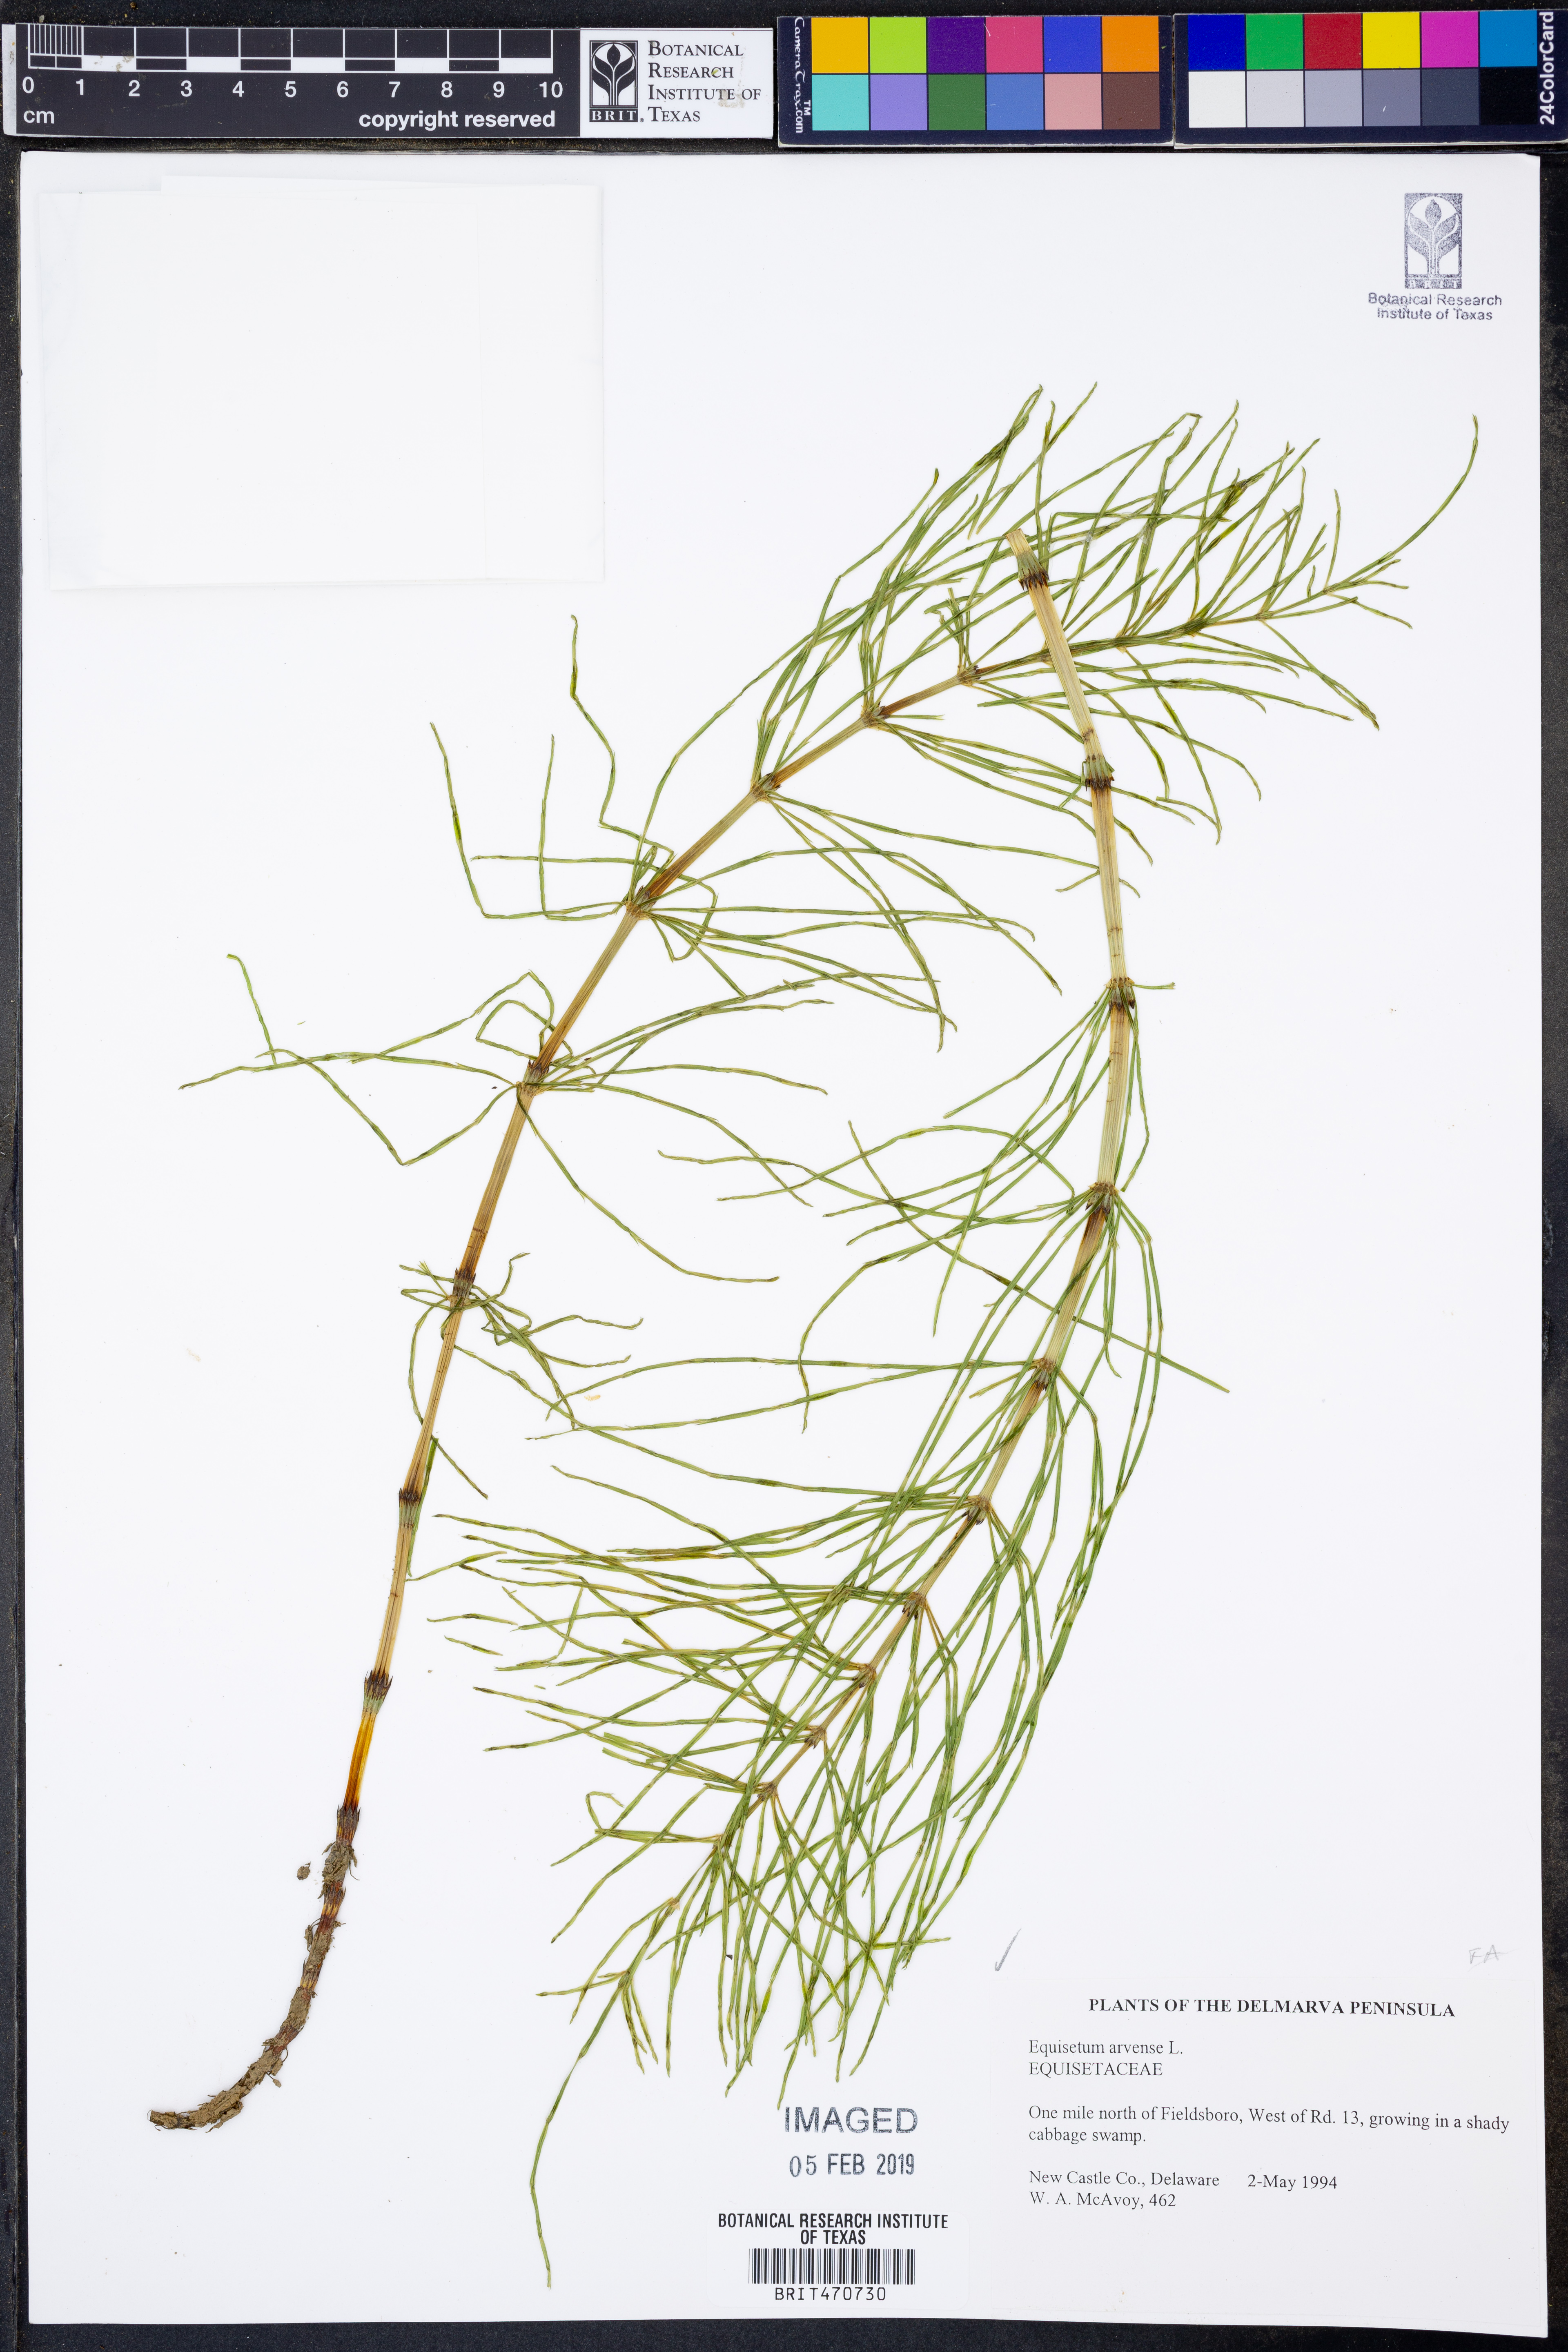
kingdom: Plantae
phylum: Tracheophyta
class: Polypodiopsida
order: Equisetales
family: Equisetaceae
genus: Equisetum
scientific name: Equisetum arvense
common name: Field horsetail
